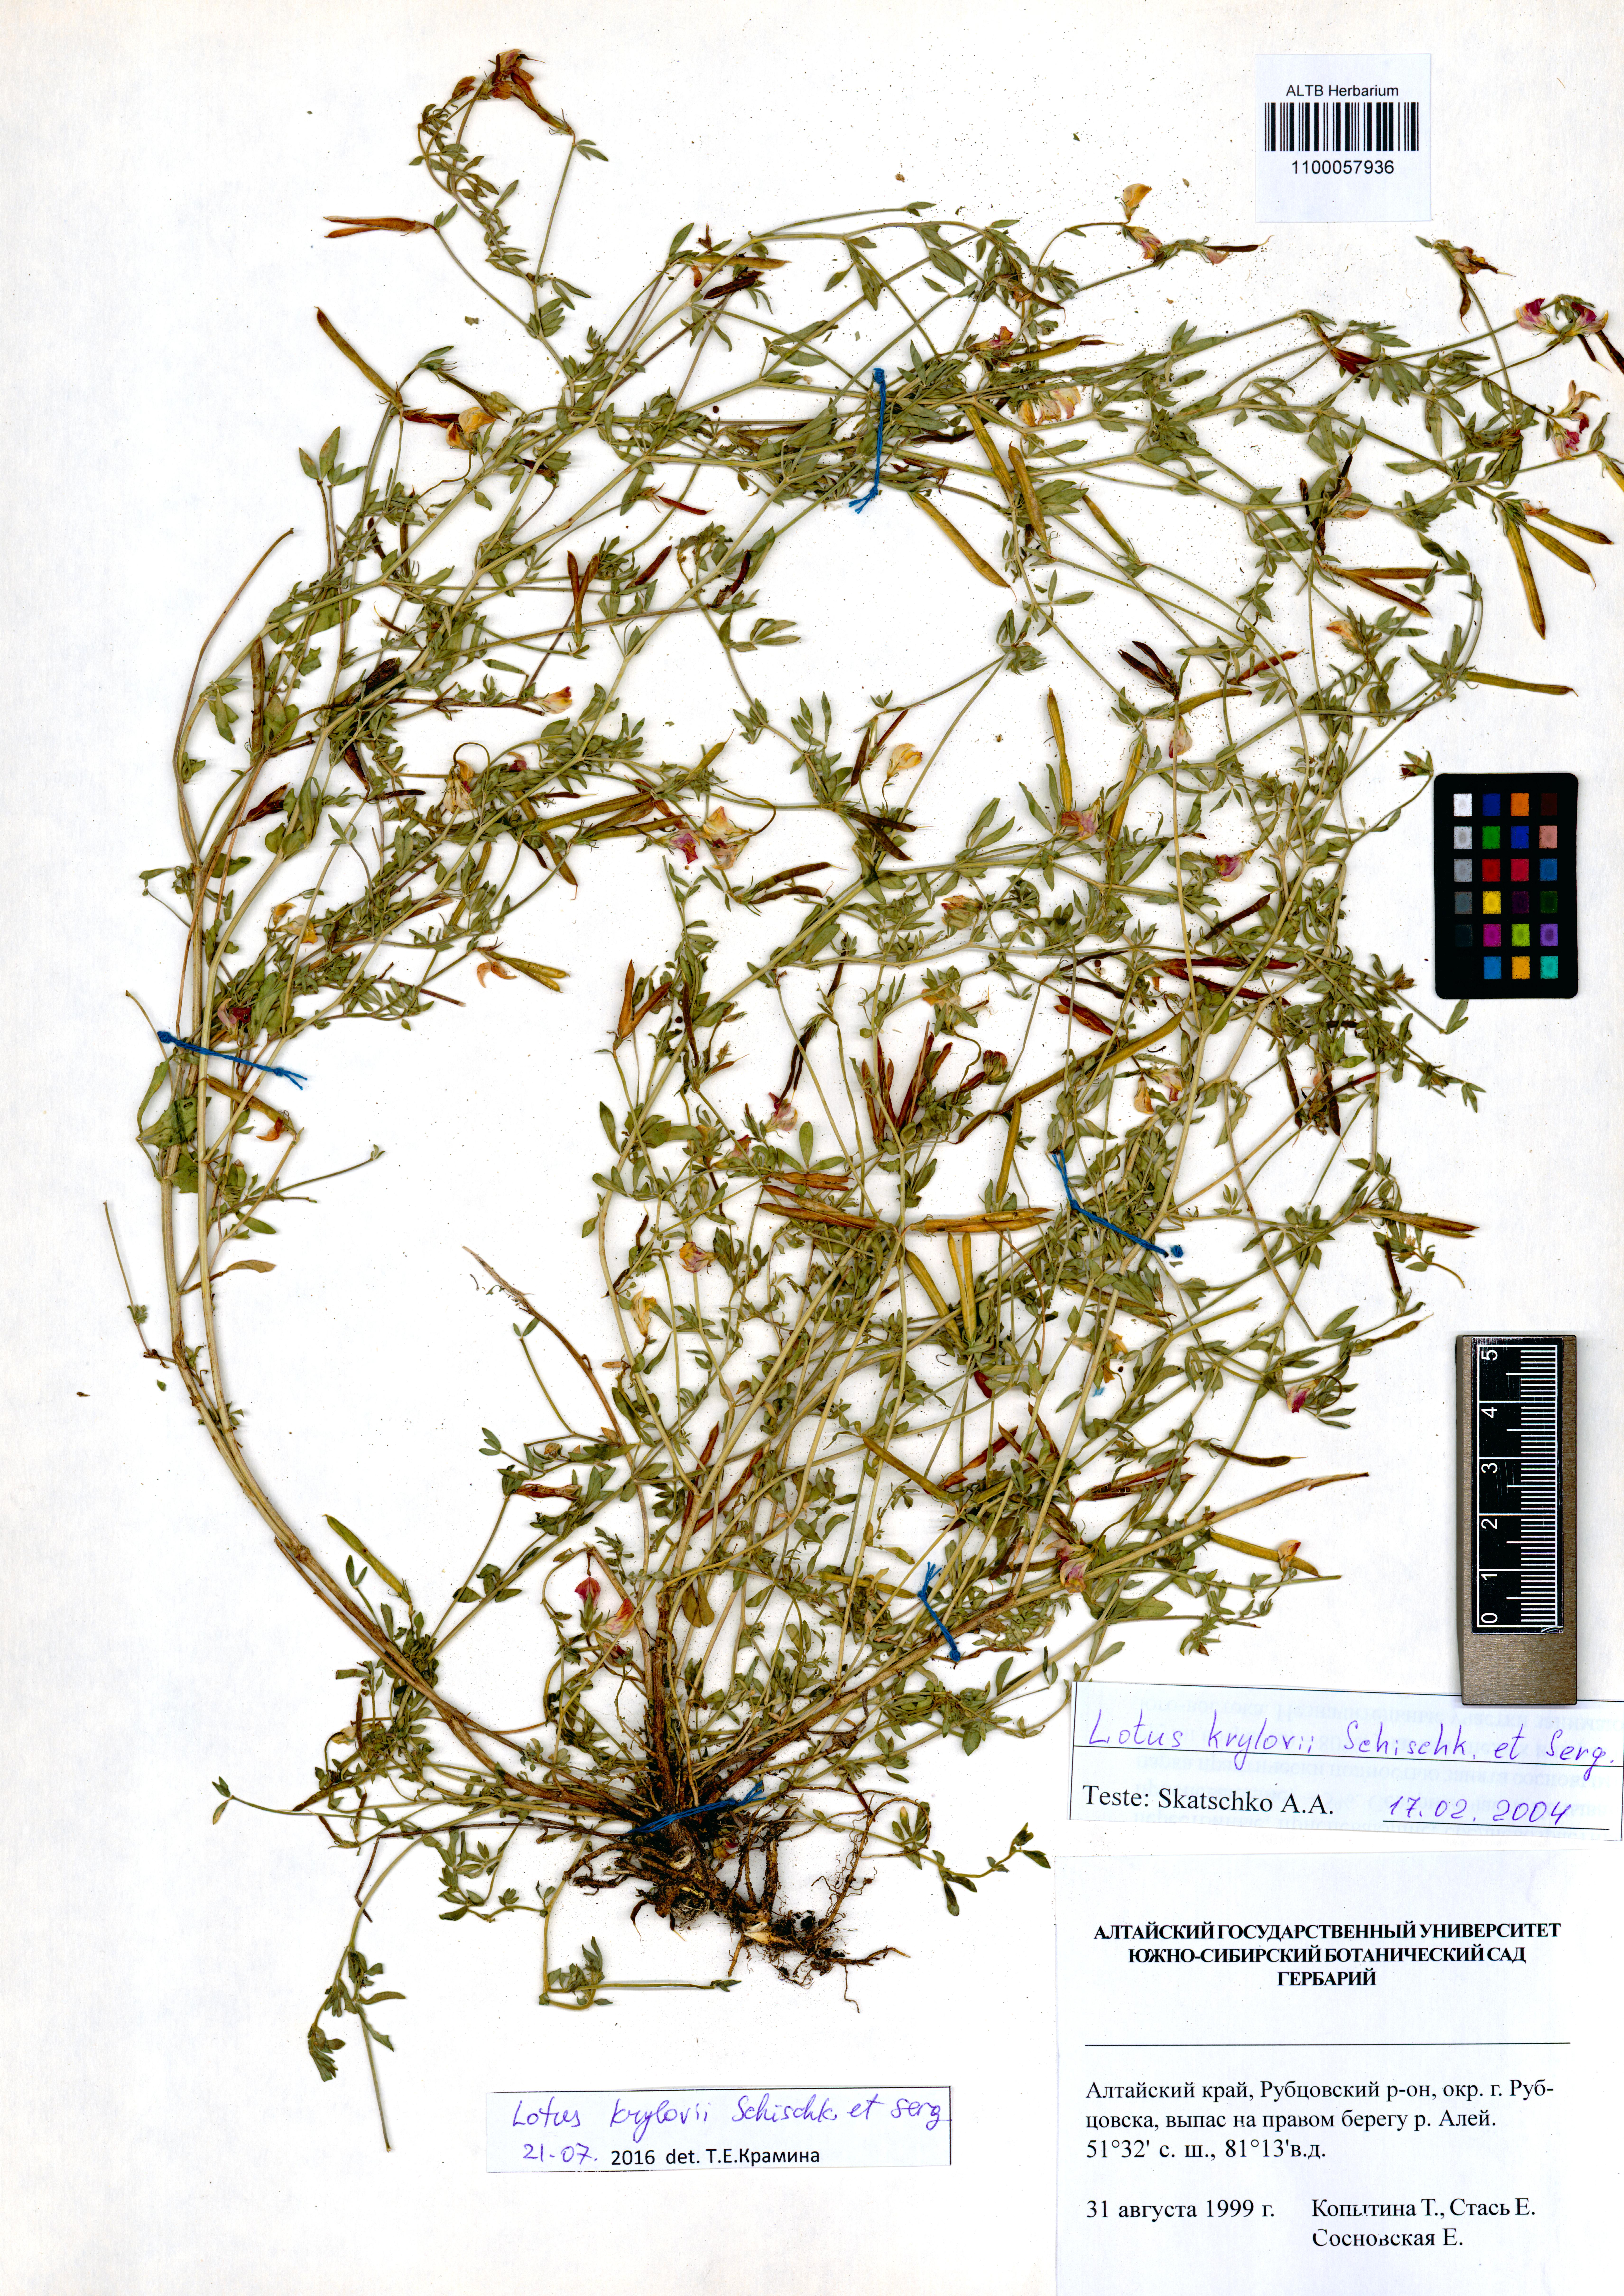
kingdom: Plantae
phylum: Tracheophyta
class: Magnoliopsida
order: Fabales
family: Fabaceae
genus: Lotus
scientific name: Lotus krylovii
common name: Krylov's bird's-foot trefoil
